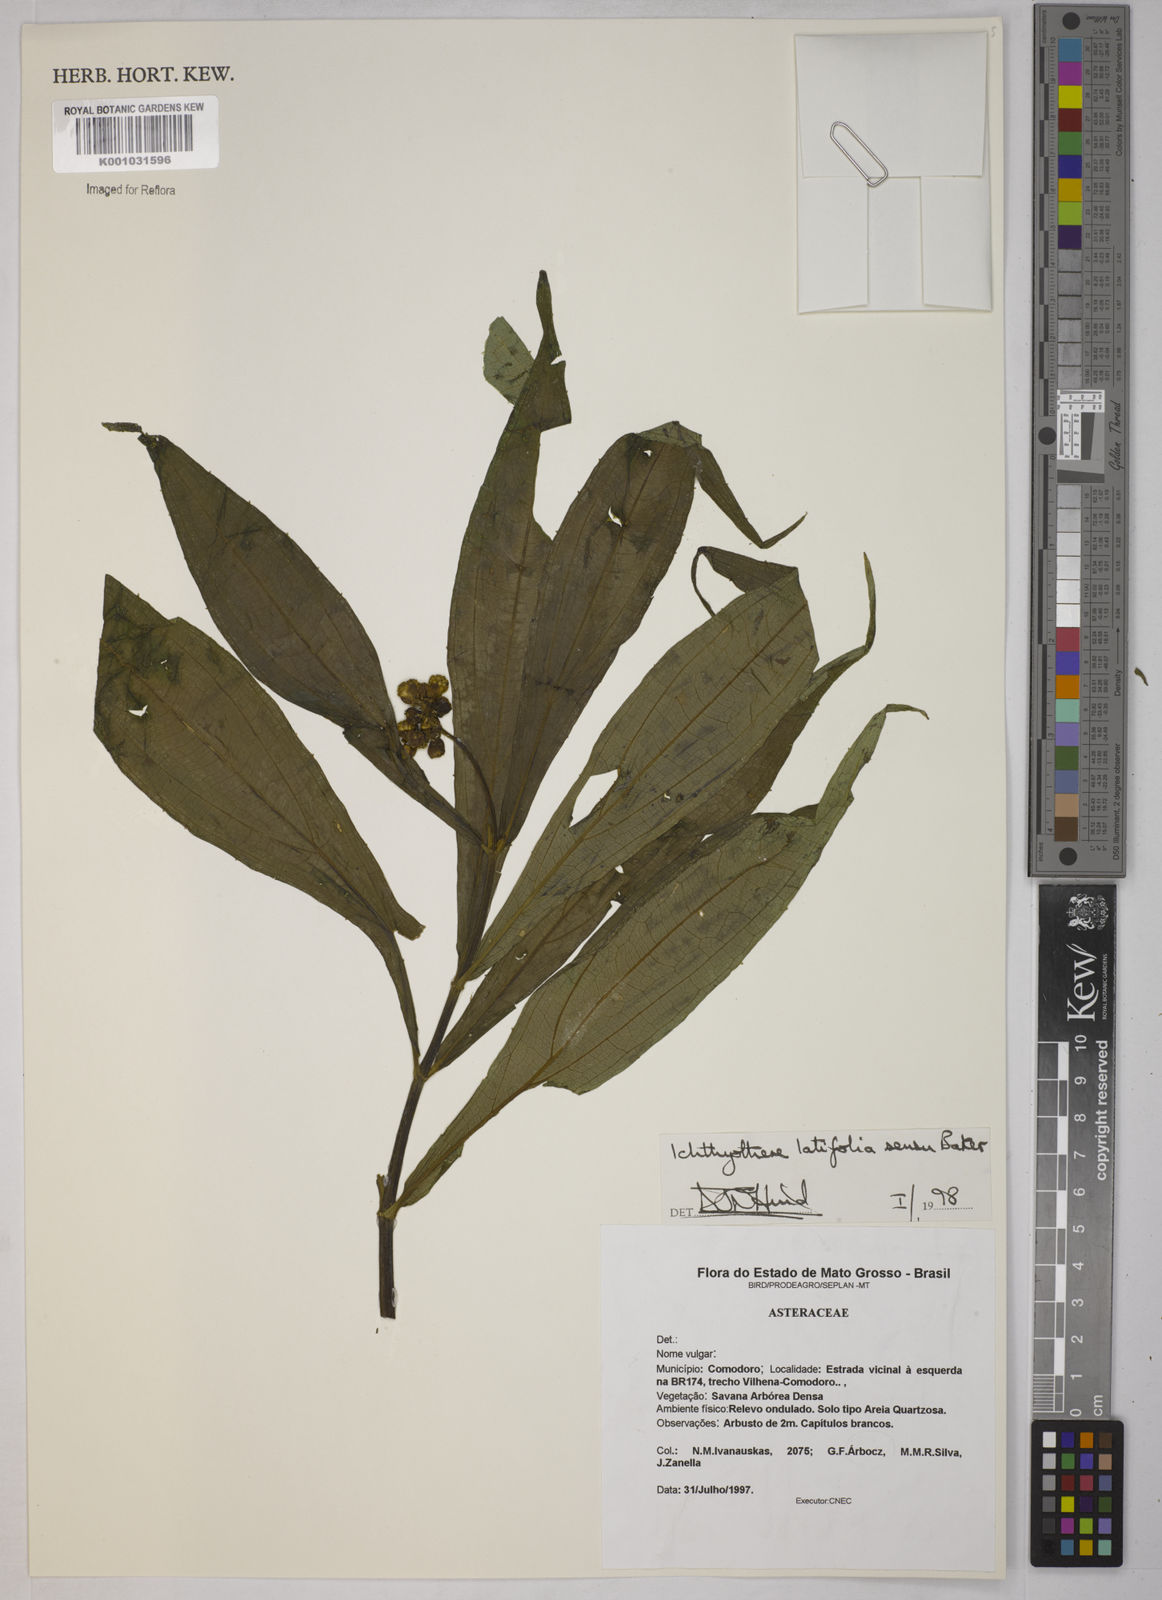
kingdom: Plantae
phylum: Tracheophyta
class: Magnoliopsida
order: Asterales
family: Asteraceae
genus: Ichthyothere
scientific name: Ichthyothere latifolia
